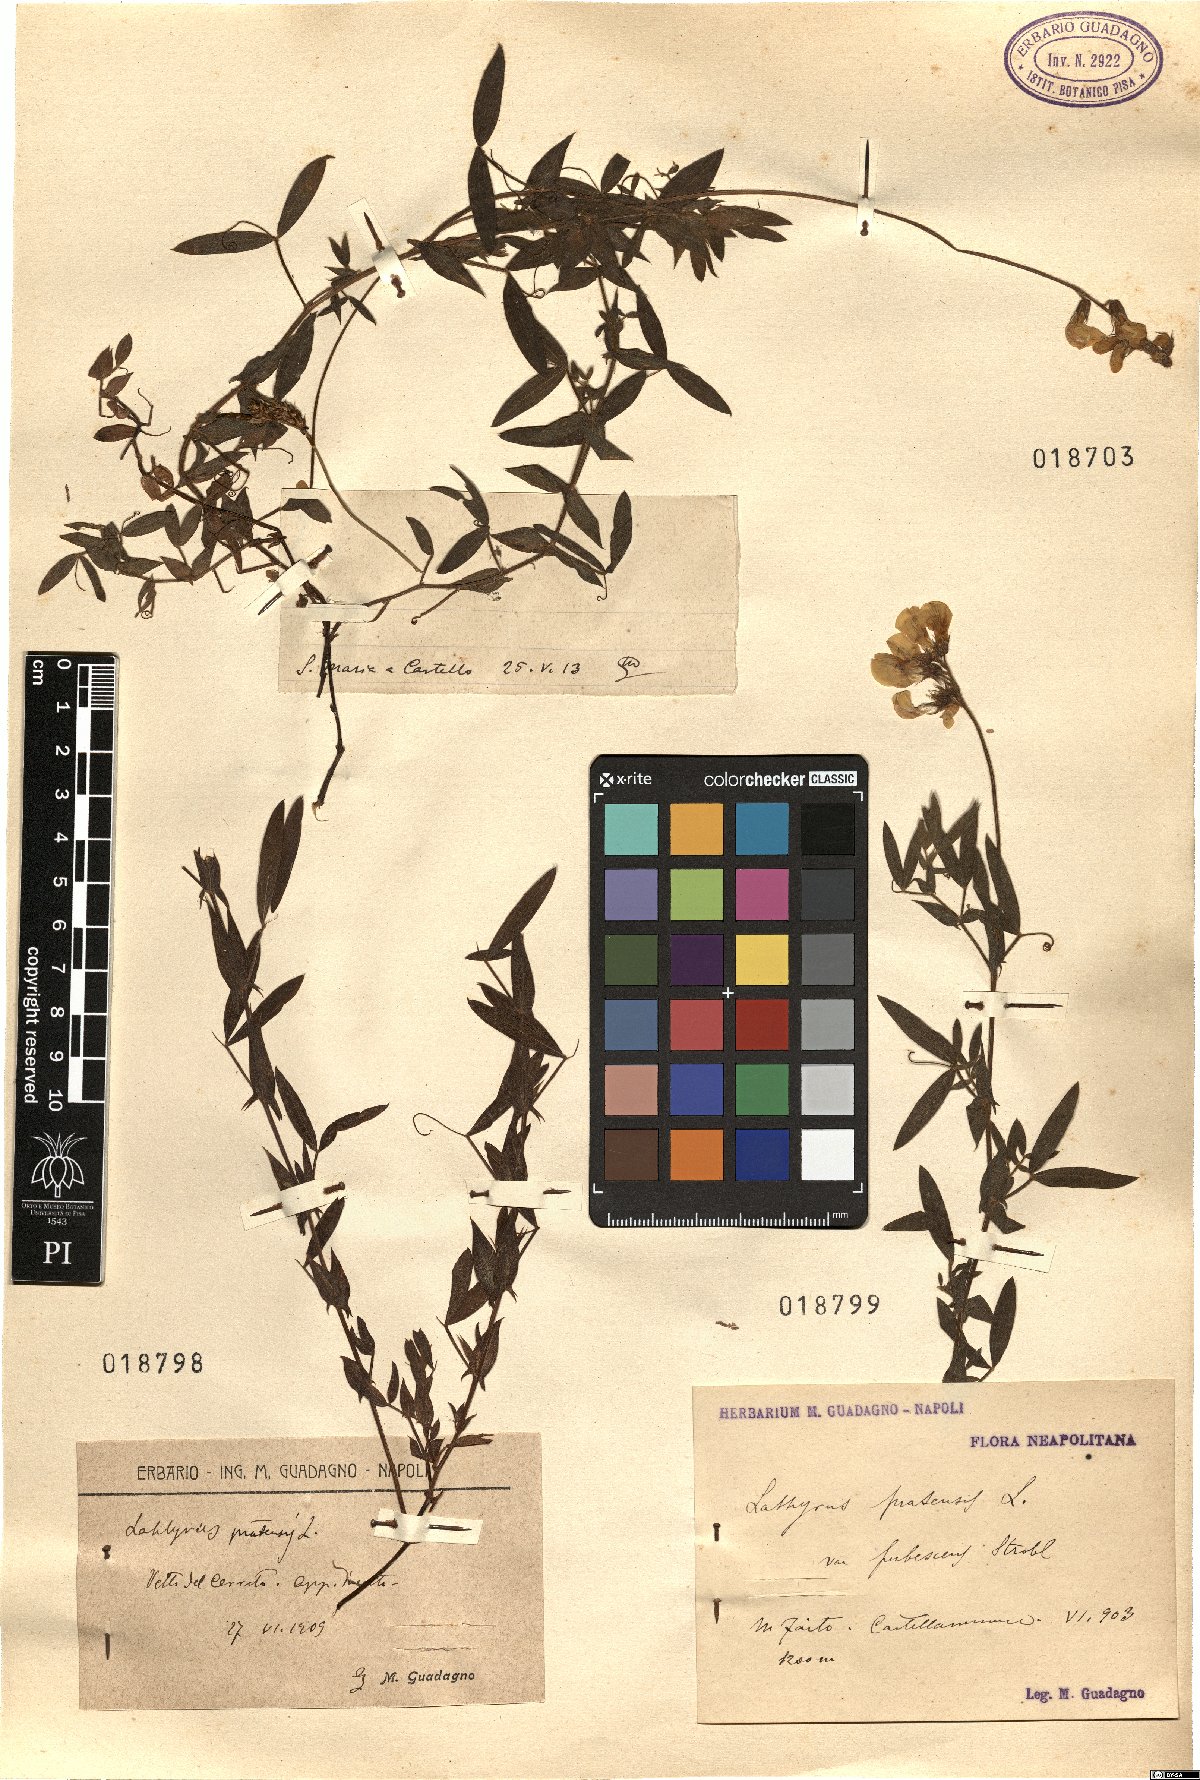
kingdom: Plantae
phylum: Tracheophyta
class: Magnoliopsida
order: Fabales
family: Fabaceae
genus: Lathyrus
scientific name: Lathyrus pratensis
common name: Meadow vetchling
